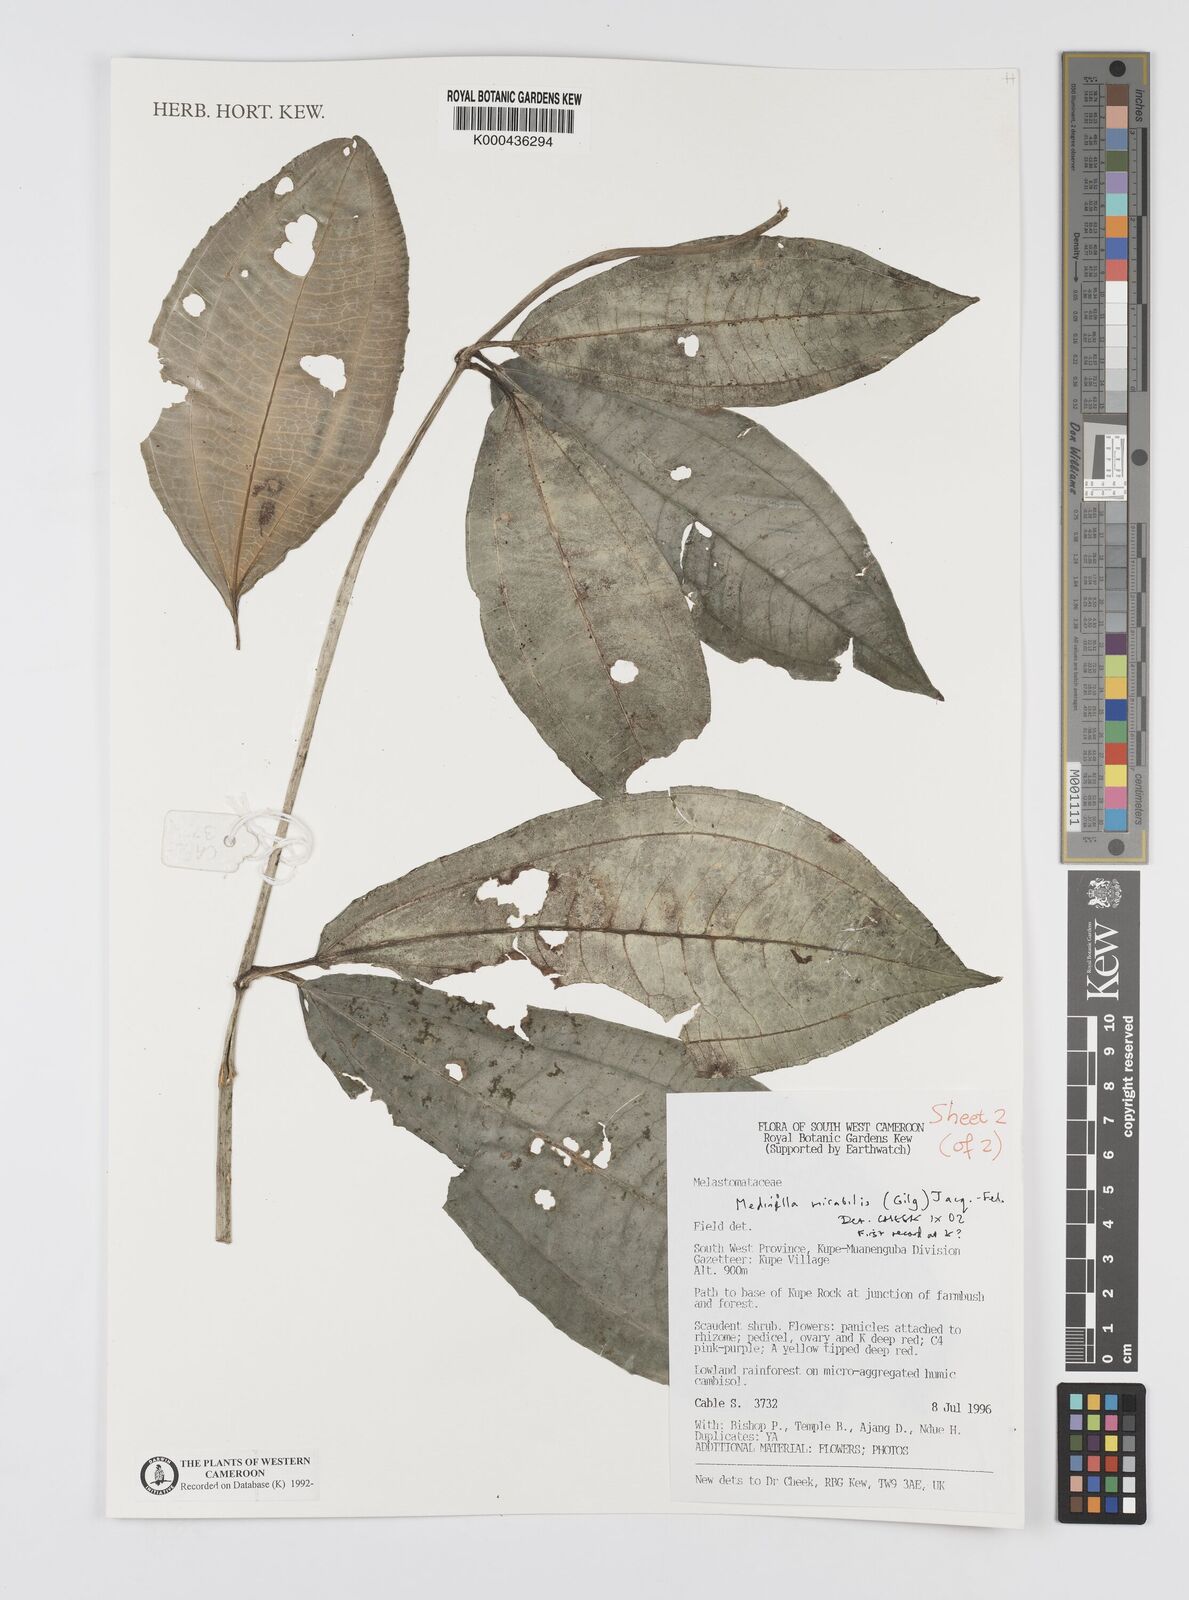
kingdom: Plantae
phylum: Tracheophyta
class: Magnoliopsida
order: Myrtales
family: Melastomataceae
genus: Medinilla
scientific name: Medinilla
